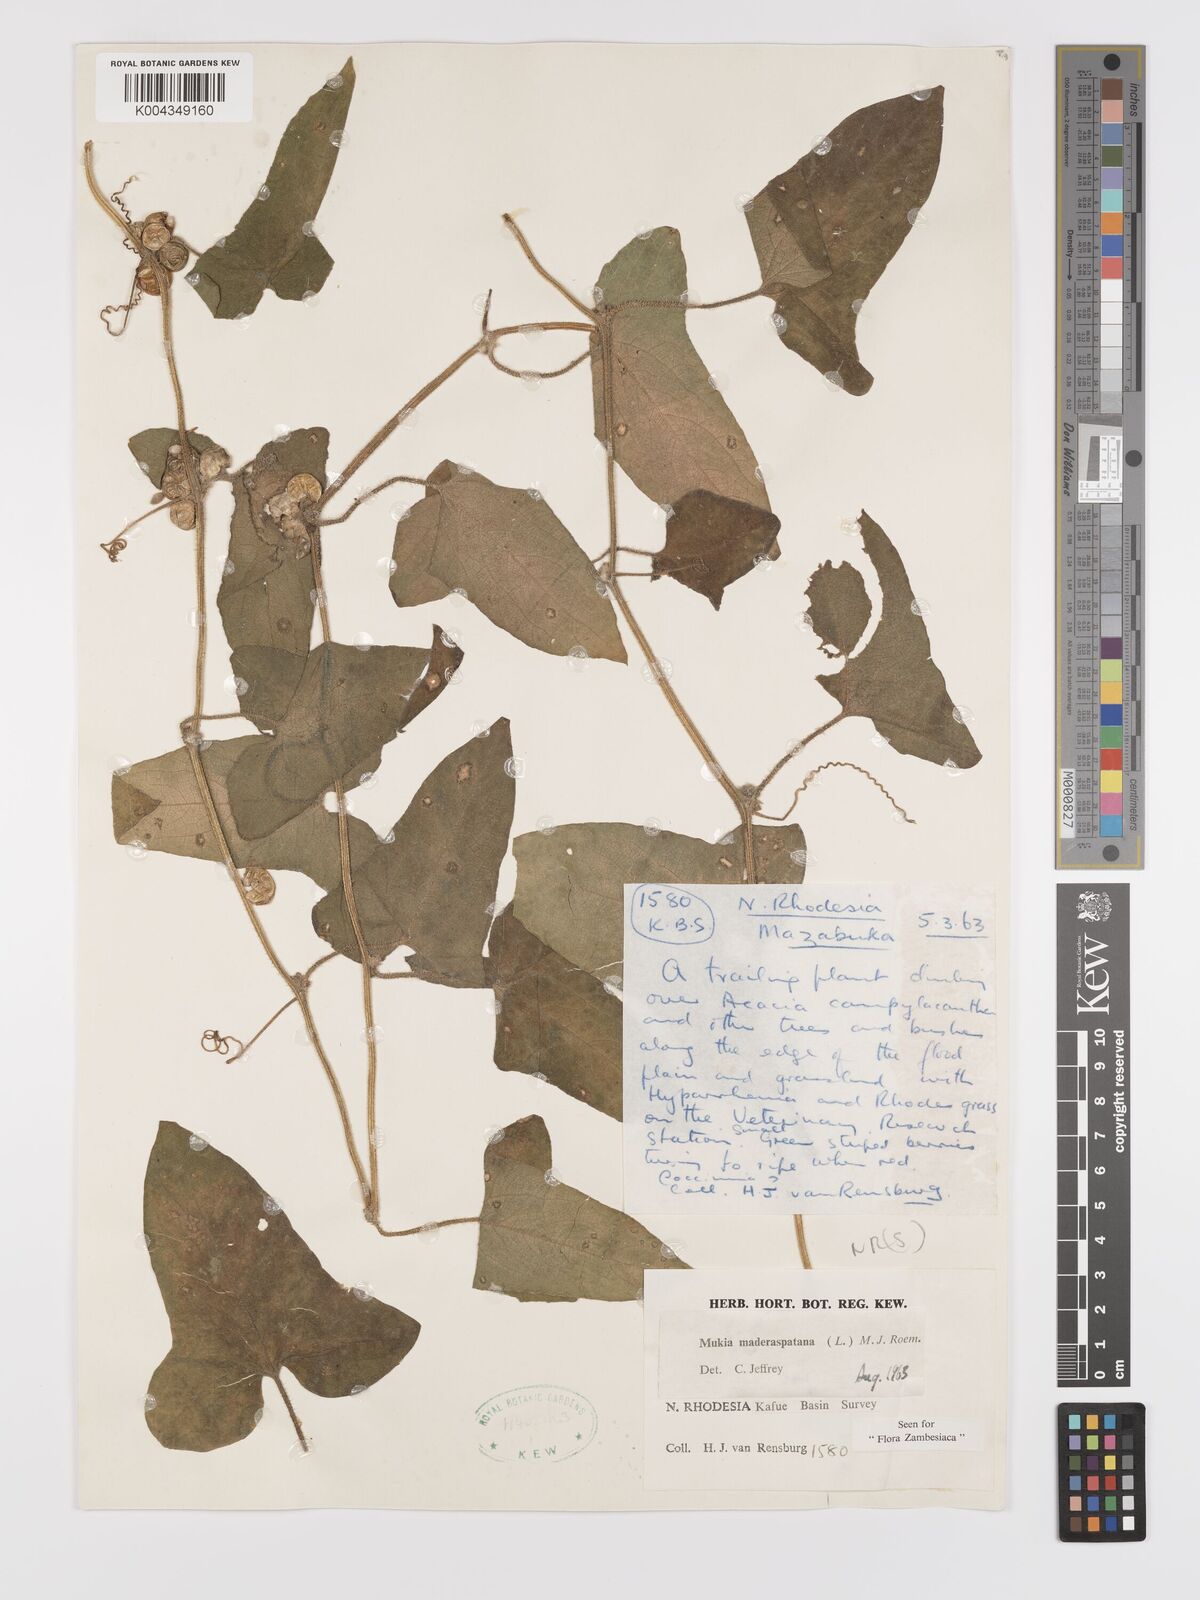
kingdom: Plantae
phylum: Tracheophyta
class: Magnoliopsida
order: Cucurbitales
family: Cucurbitaceae
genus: Cucumis
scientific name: Cucumis maderaspatanus
